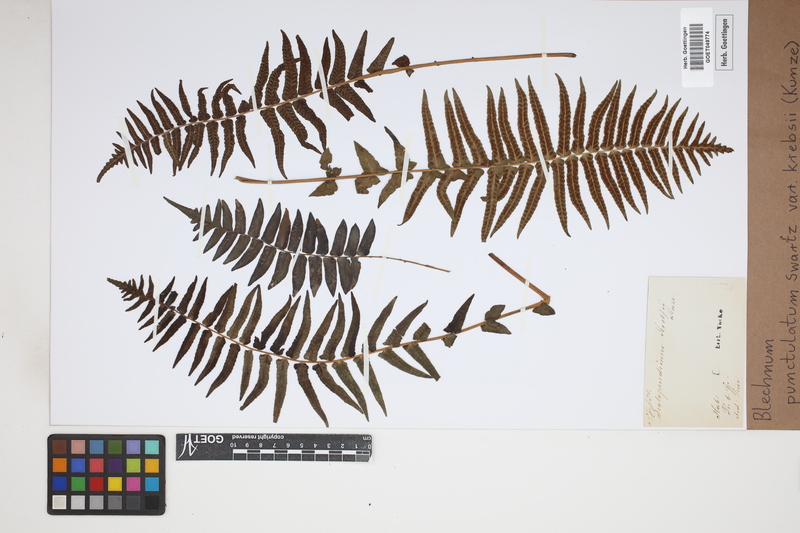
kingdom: Plantae
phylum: Tracheophyta
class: Polypodiopsida
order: Polypodiales
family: Blechnaceae
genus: Blechnum
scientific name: Blechnum punctulatum
